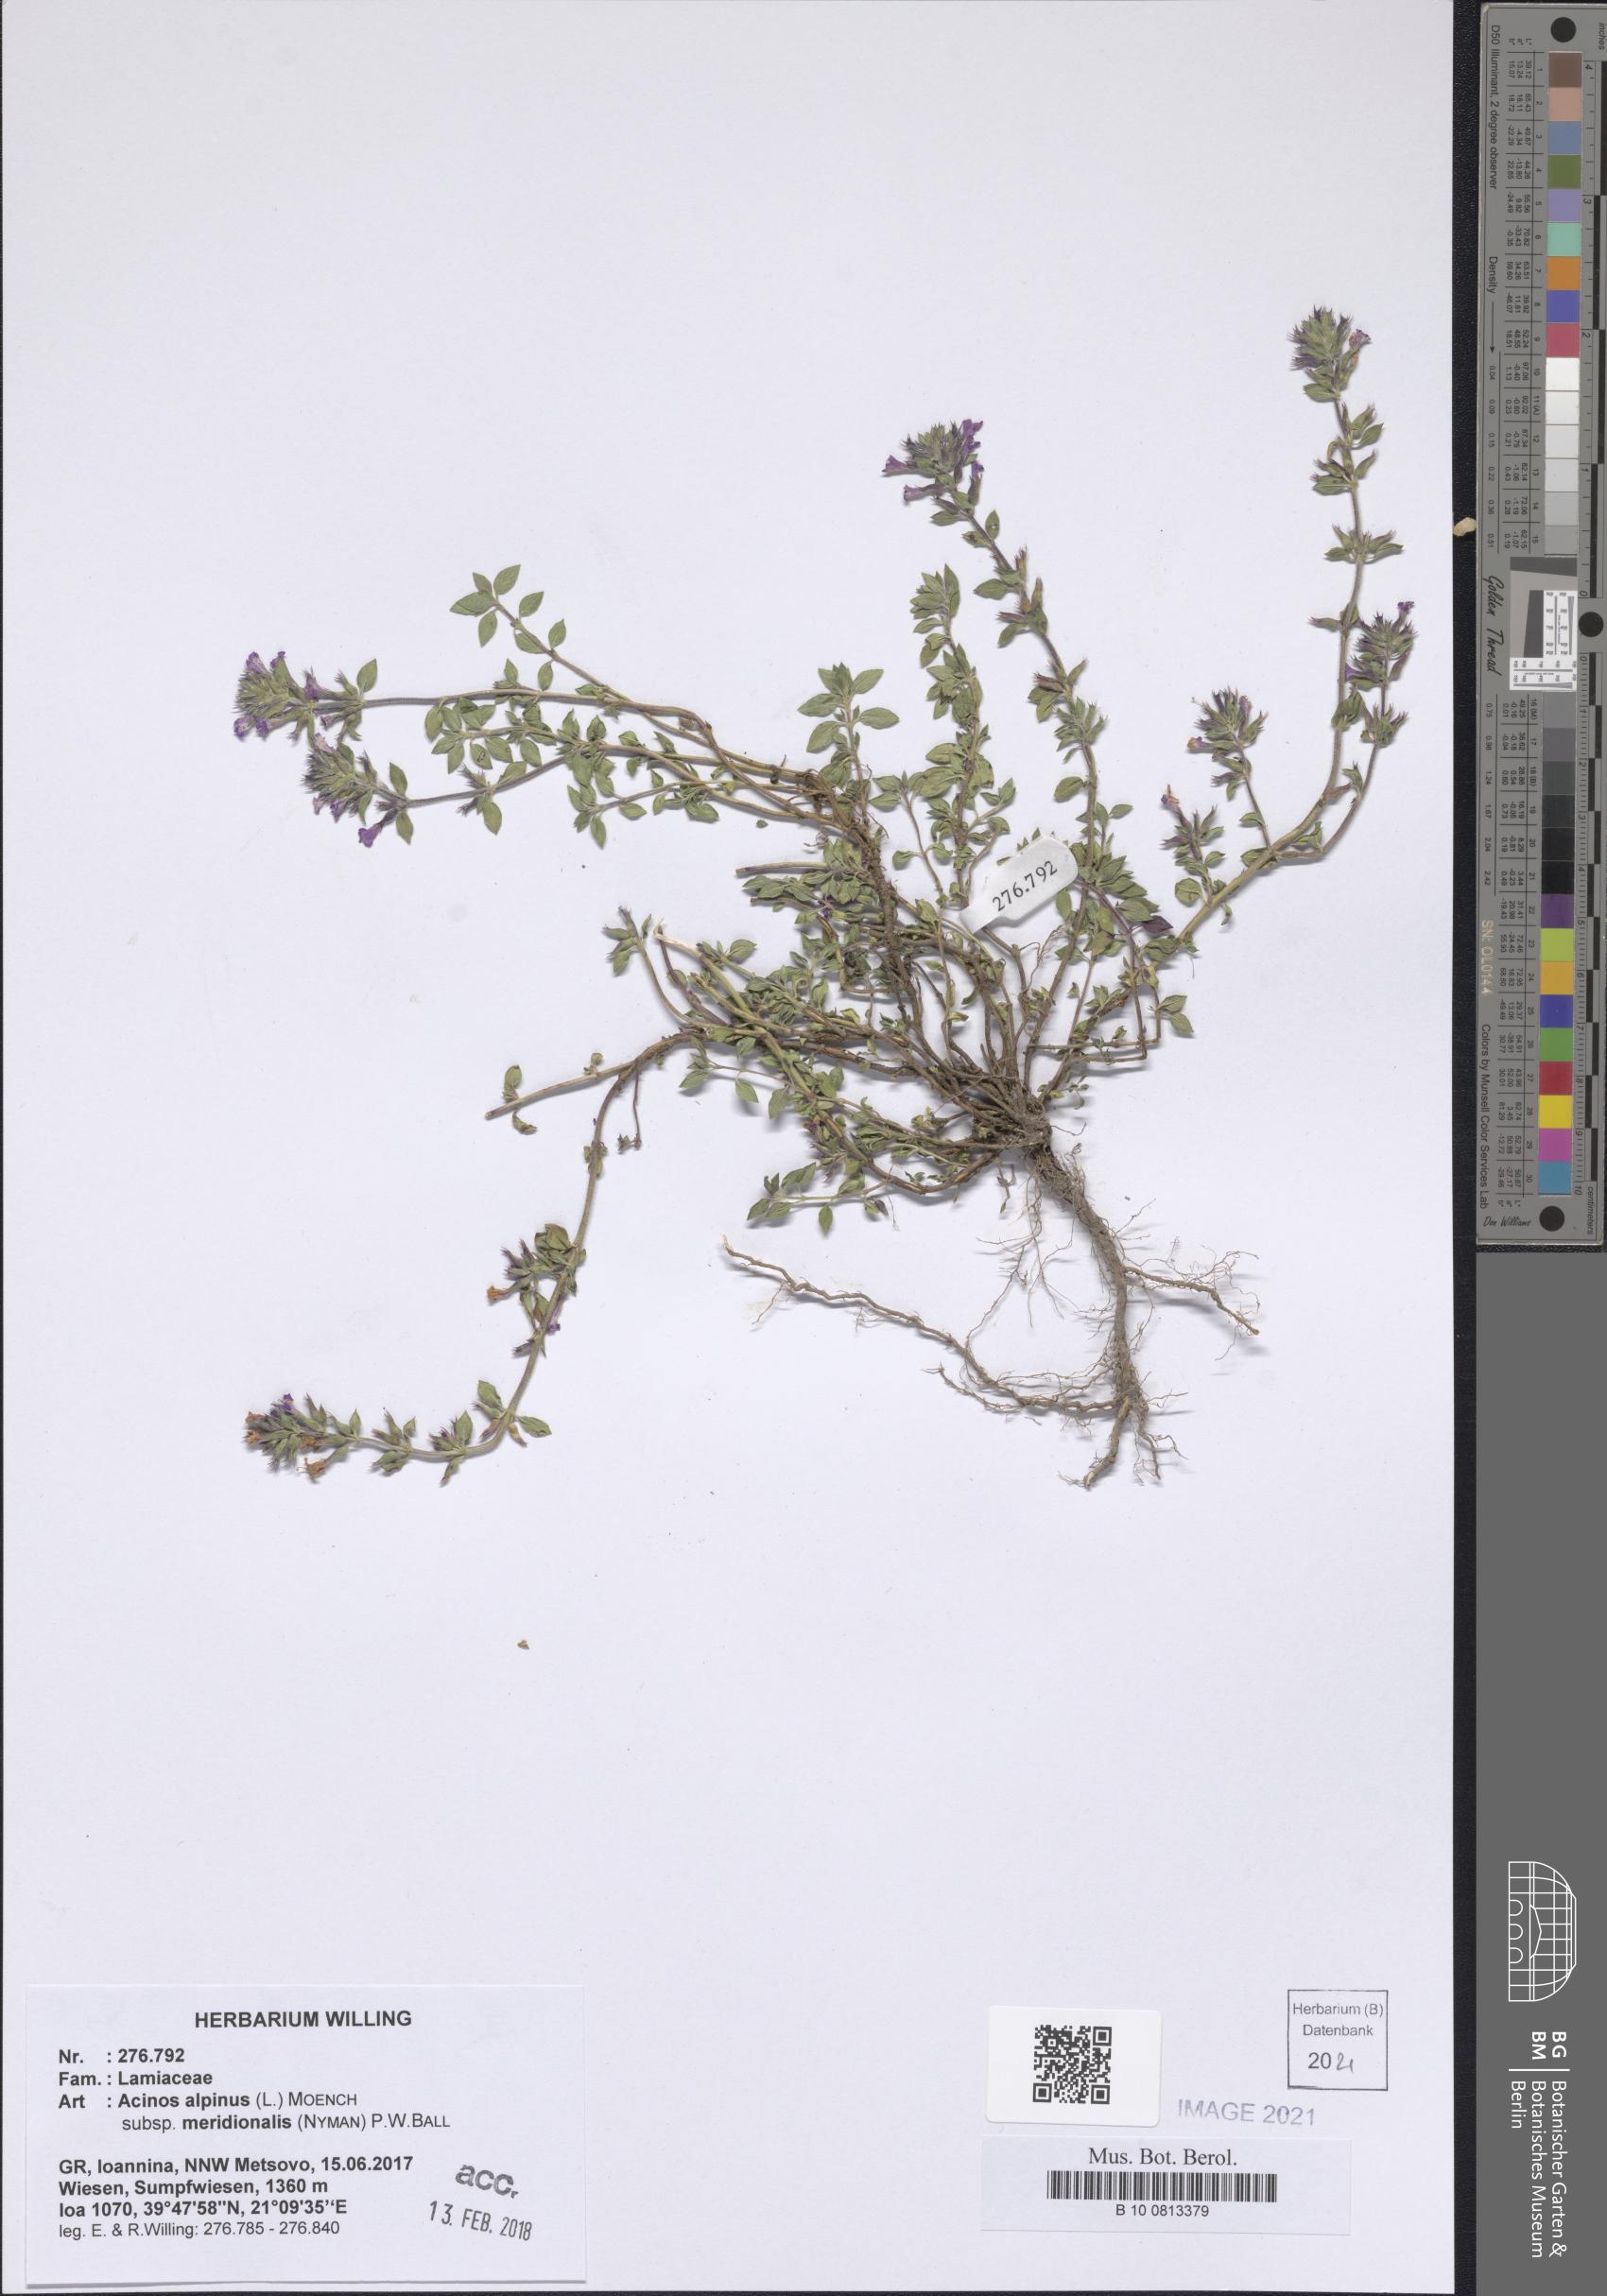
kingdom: Plantae
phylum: Tracheophyta
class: Magnoliopsida
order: Lamiales
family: Lamiaceae
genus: Clinopodium
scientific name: Clinopodium alpinum
